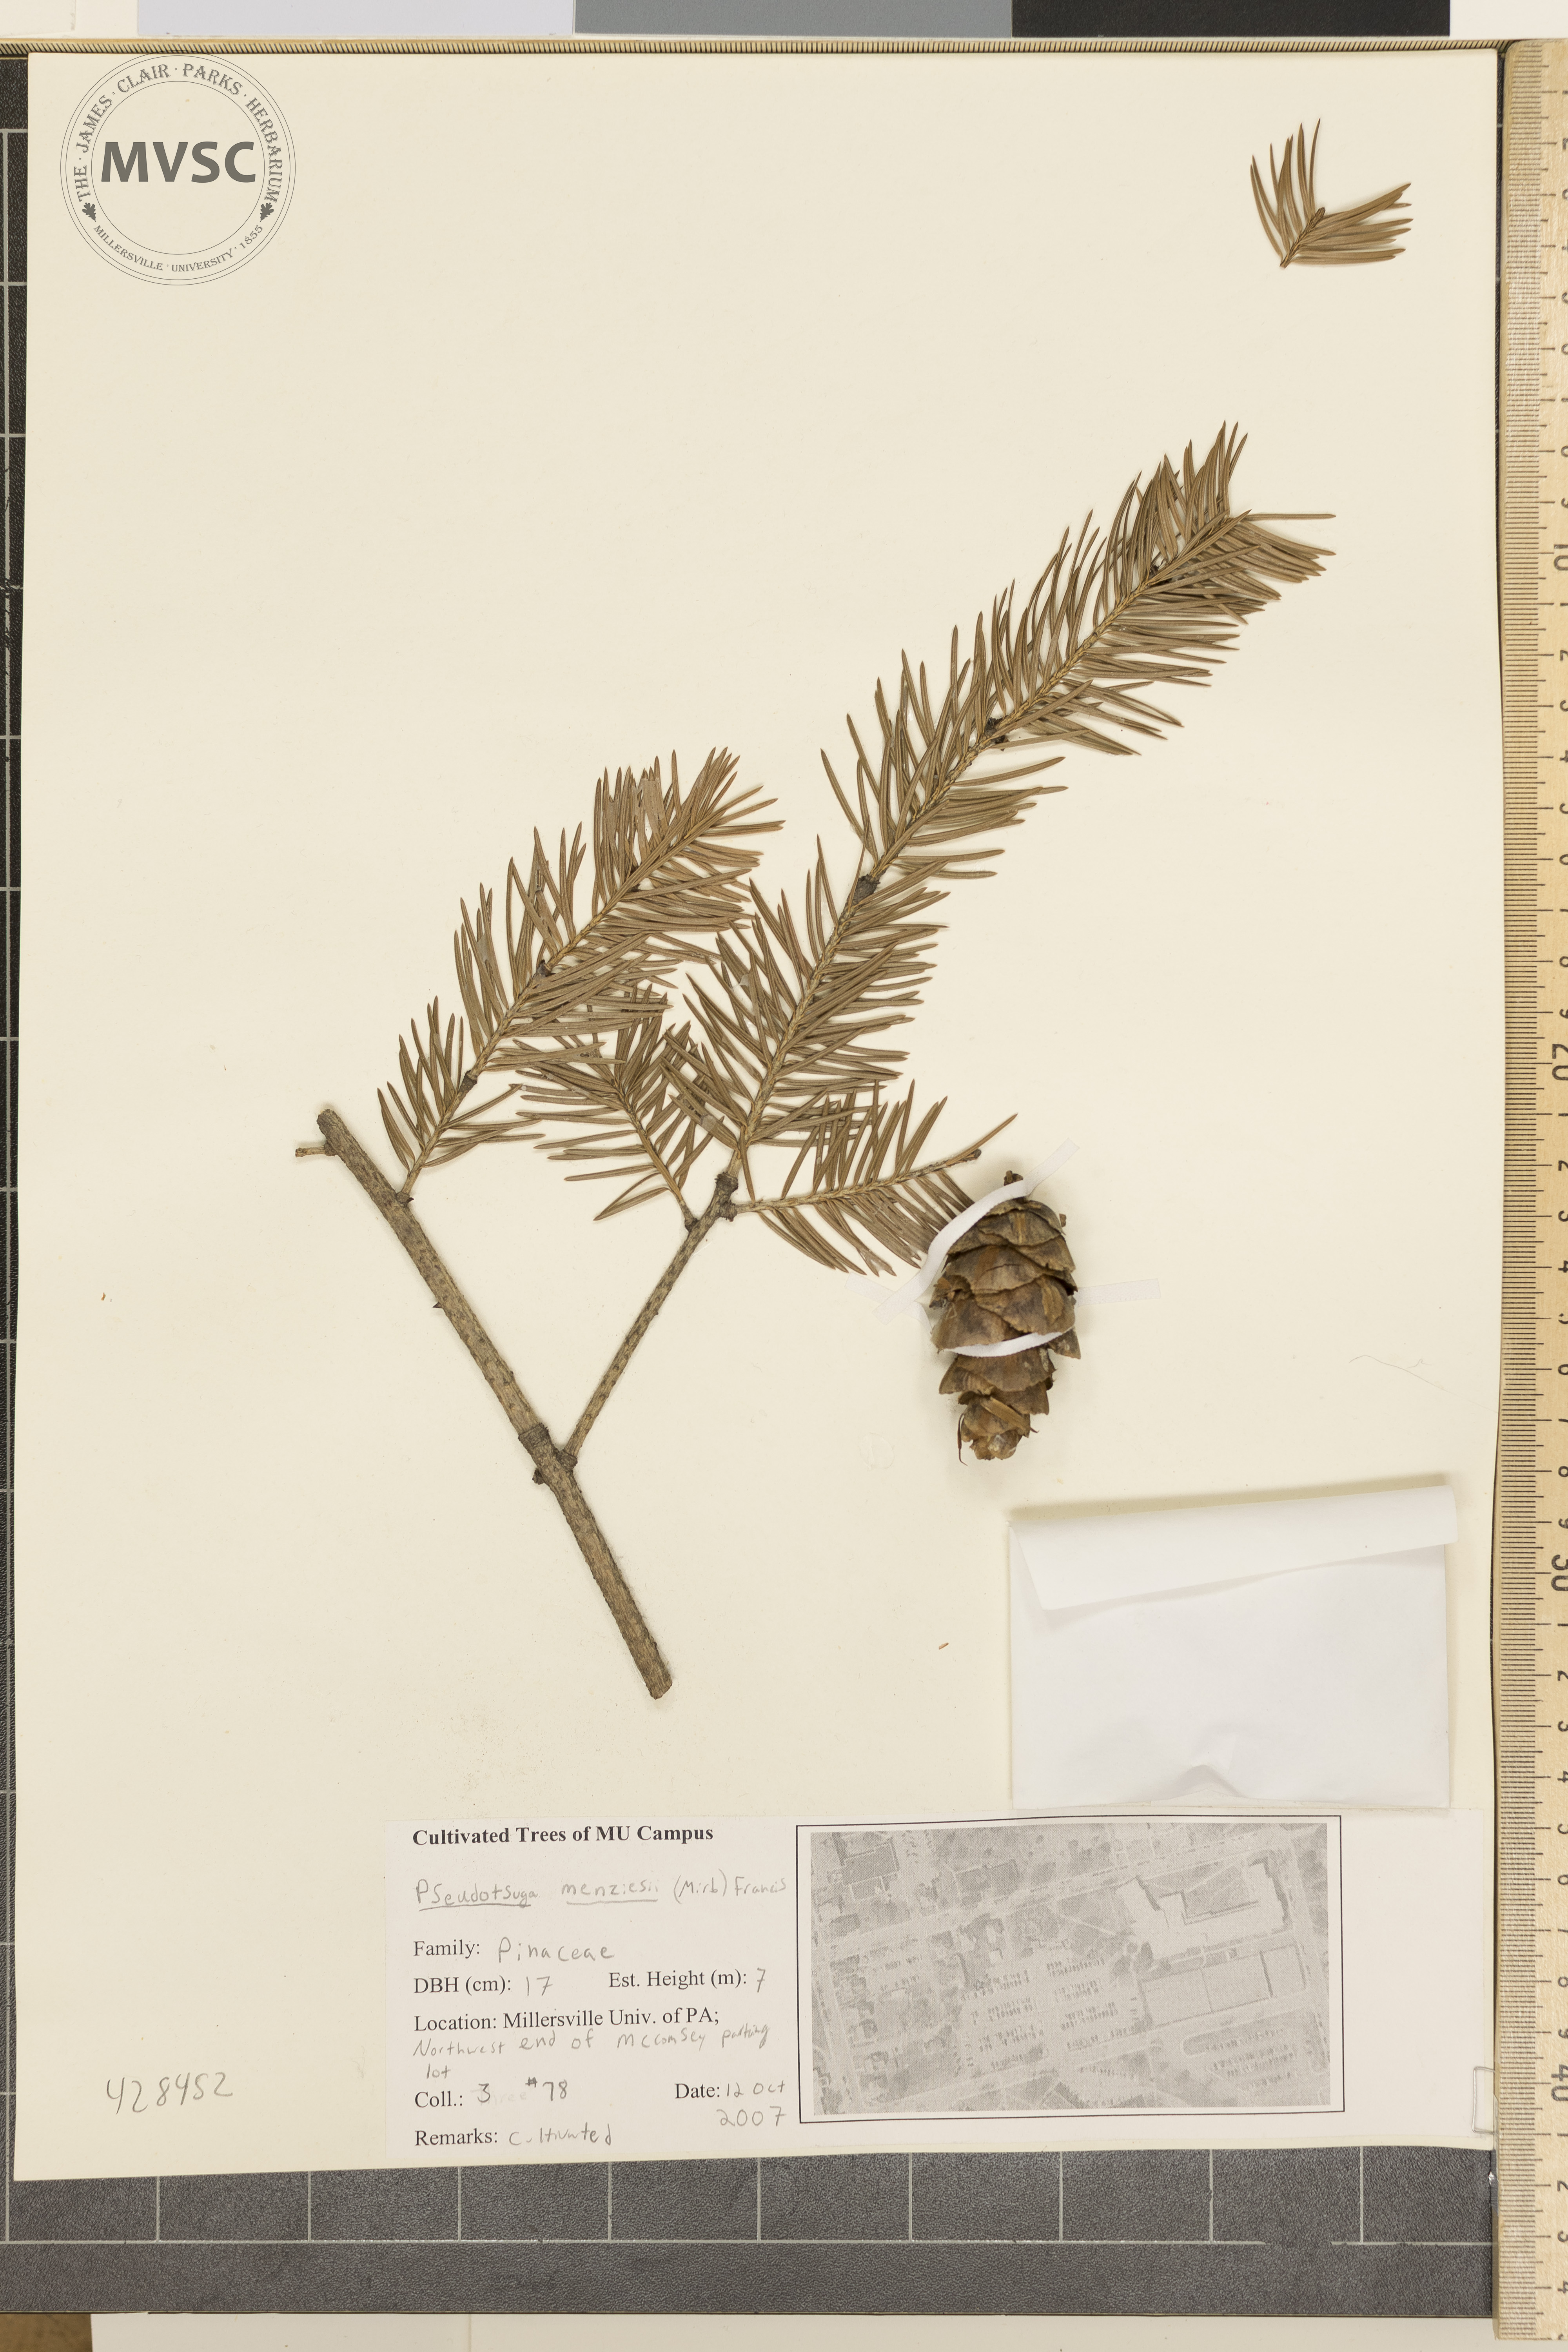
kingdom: Plantae
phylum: Tracheophyta
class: Pinopsida
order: Pinales
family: Pinaceae
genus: Pseudotsuga
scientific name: Pseudotsuga menziesii
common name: Douglas-fir
